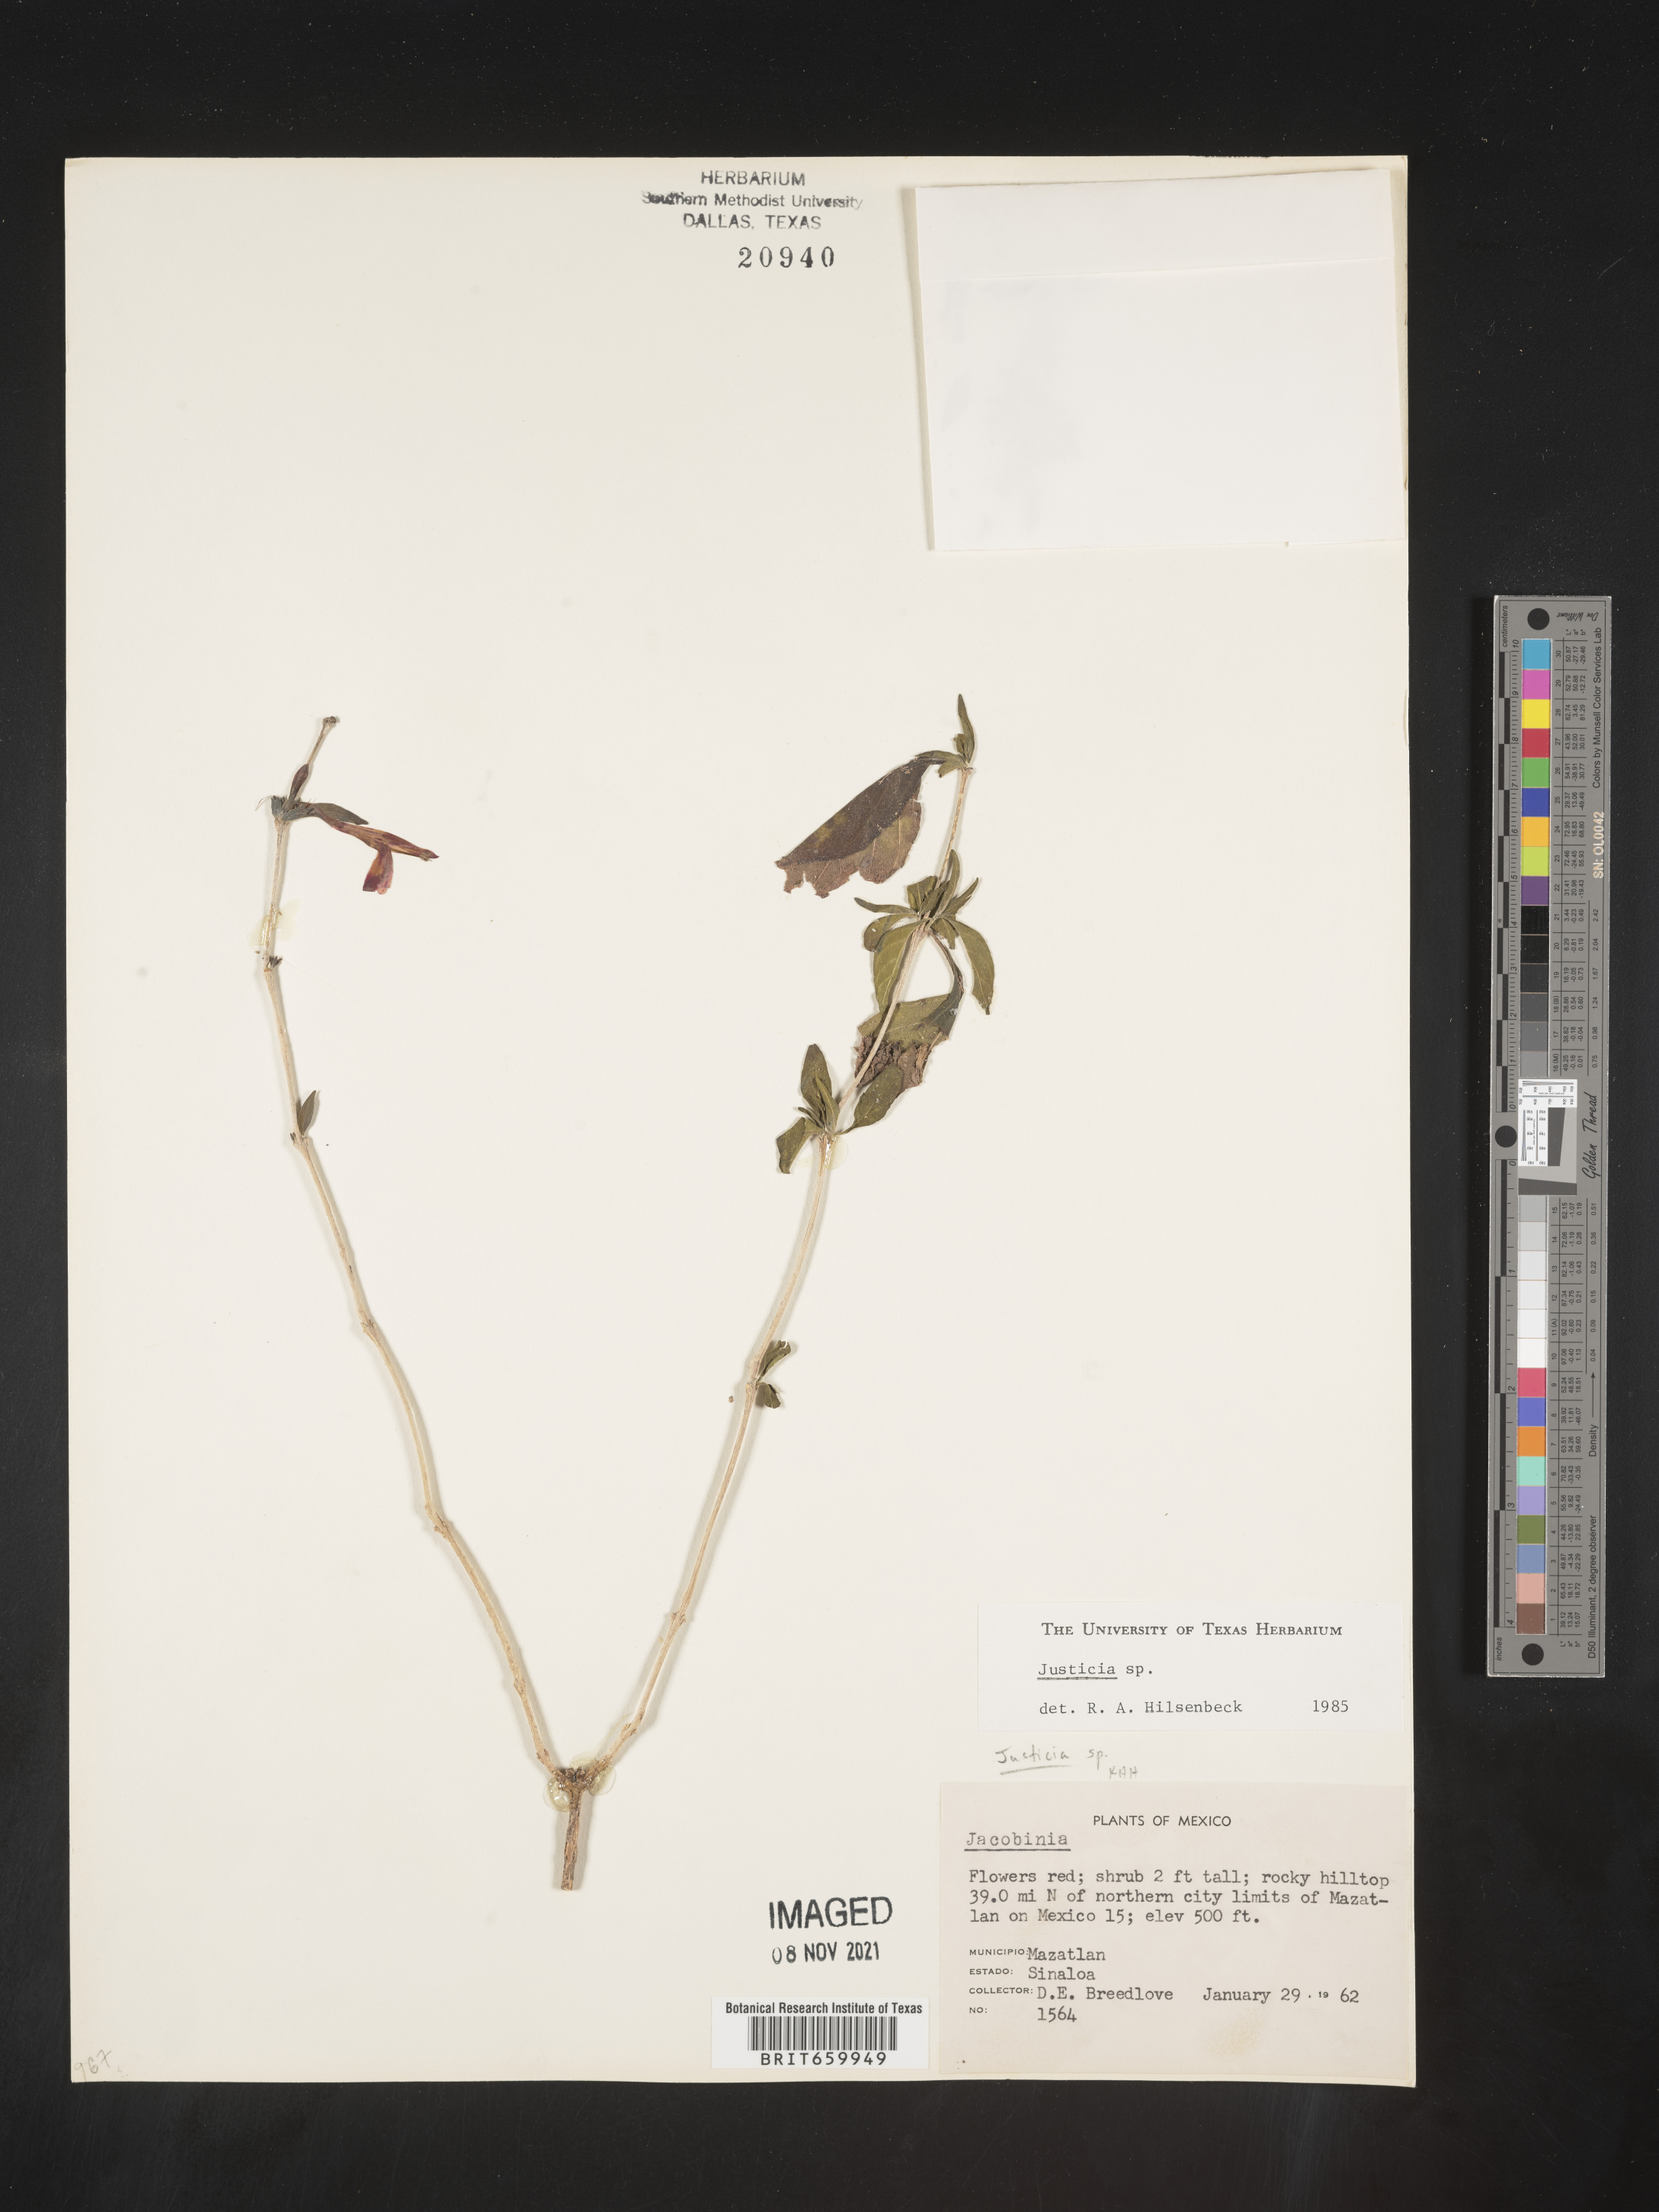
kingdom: Plantae
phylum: Tracheophyta
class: Magnoliopsida
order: Lamiales
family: Acanthaceae
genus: Justicia
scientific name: Justicia
